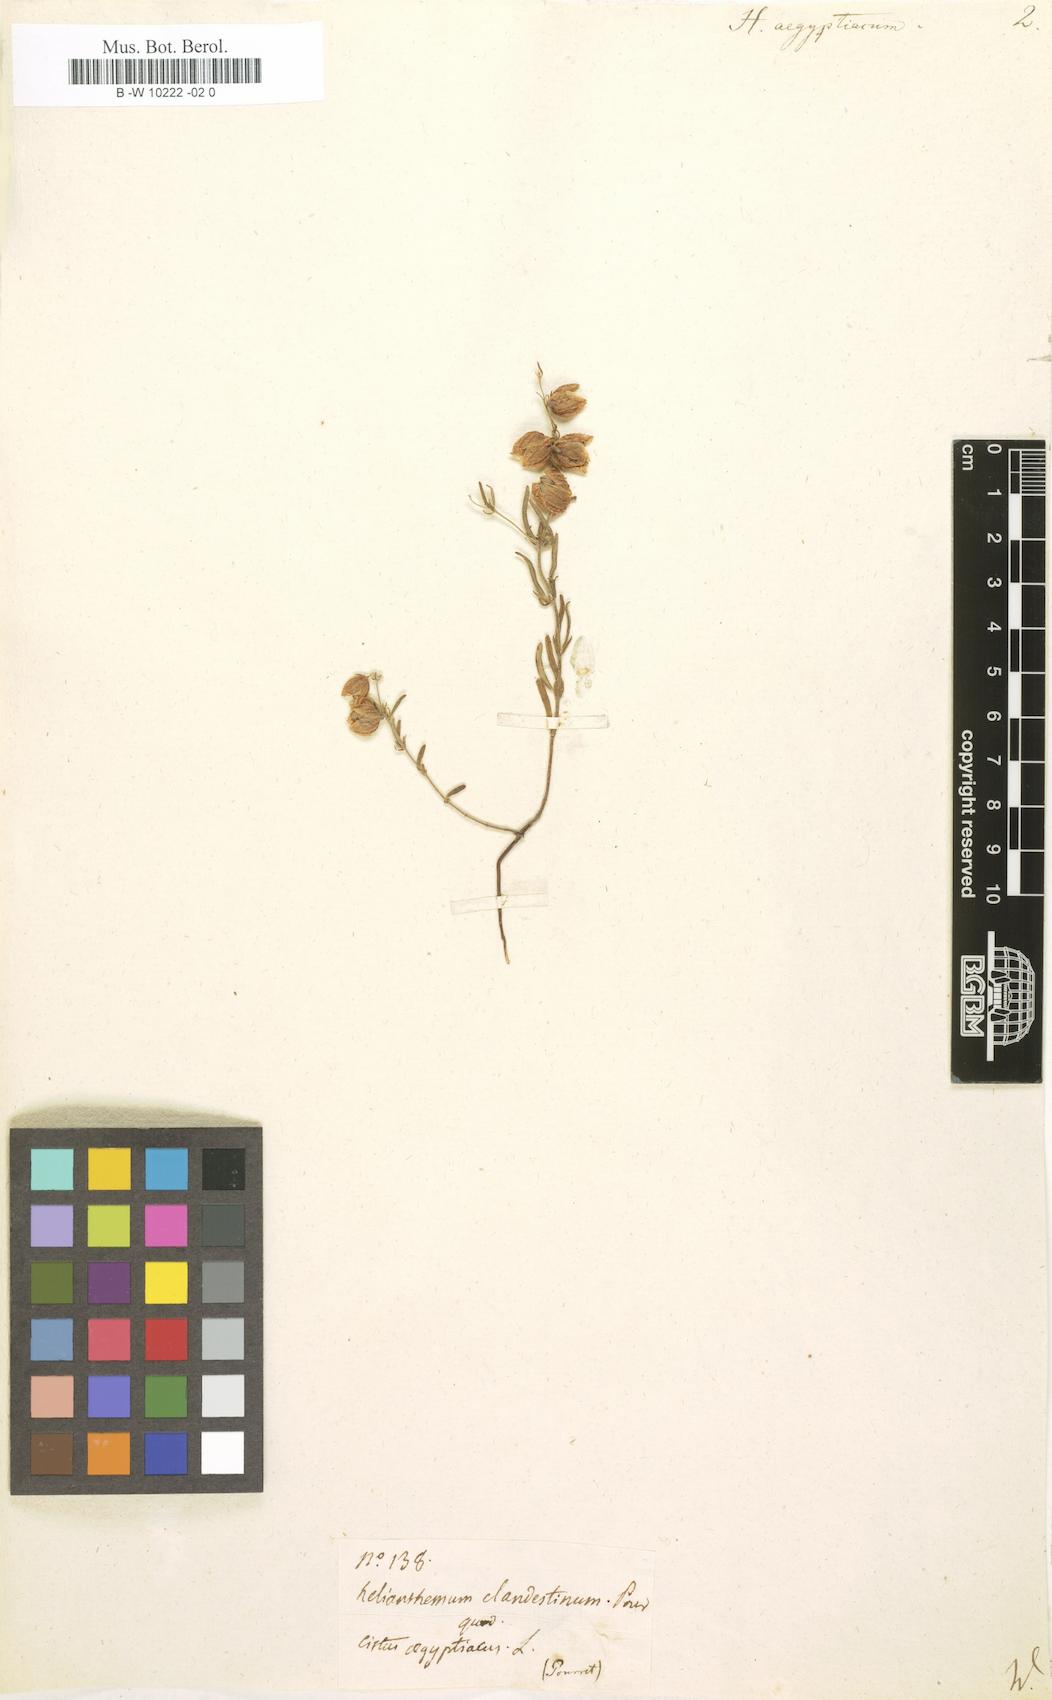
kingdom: Plantae
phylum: Tracheophyta
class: Magnoliopsida
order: Malvales
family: Cistaceae
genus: Helianthemum
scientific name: Helianthemum aegyptiacum
